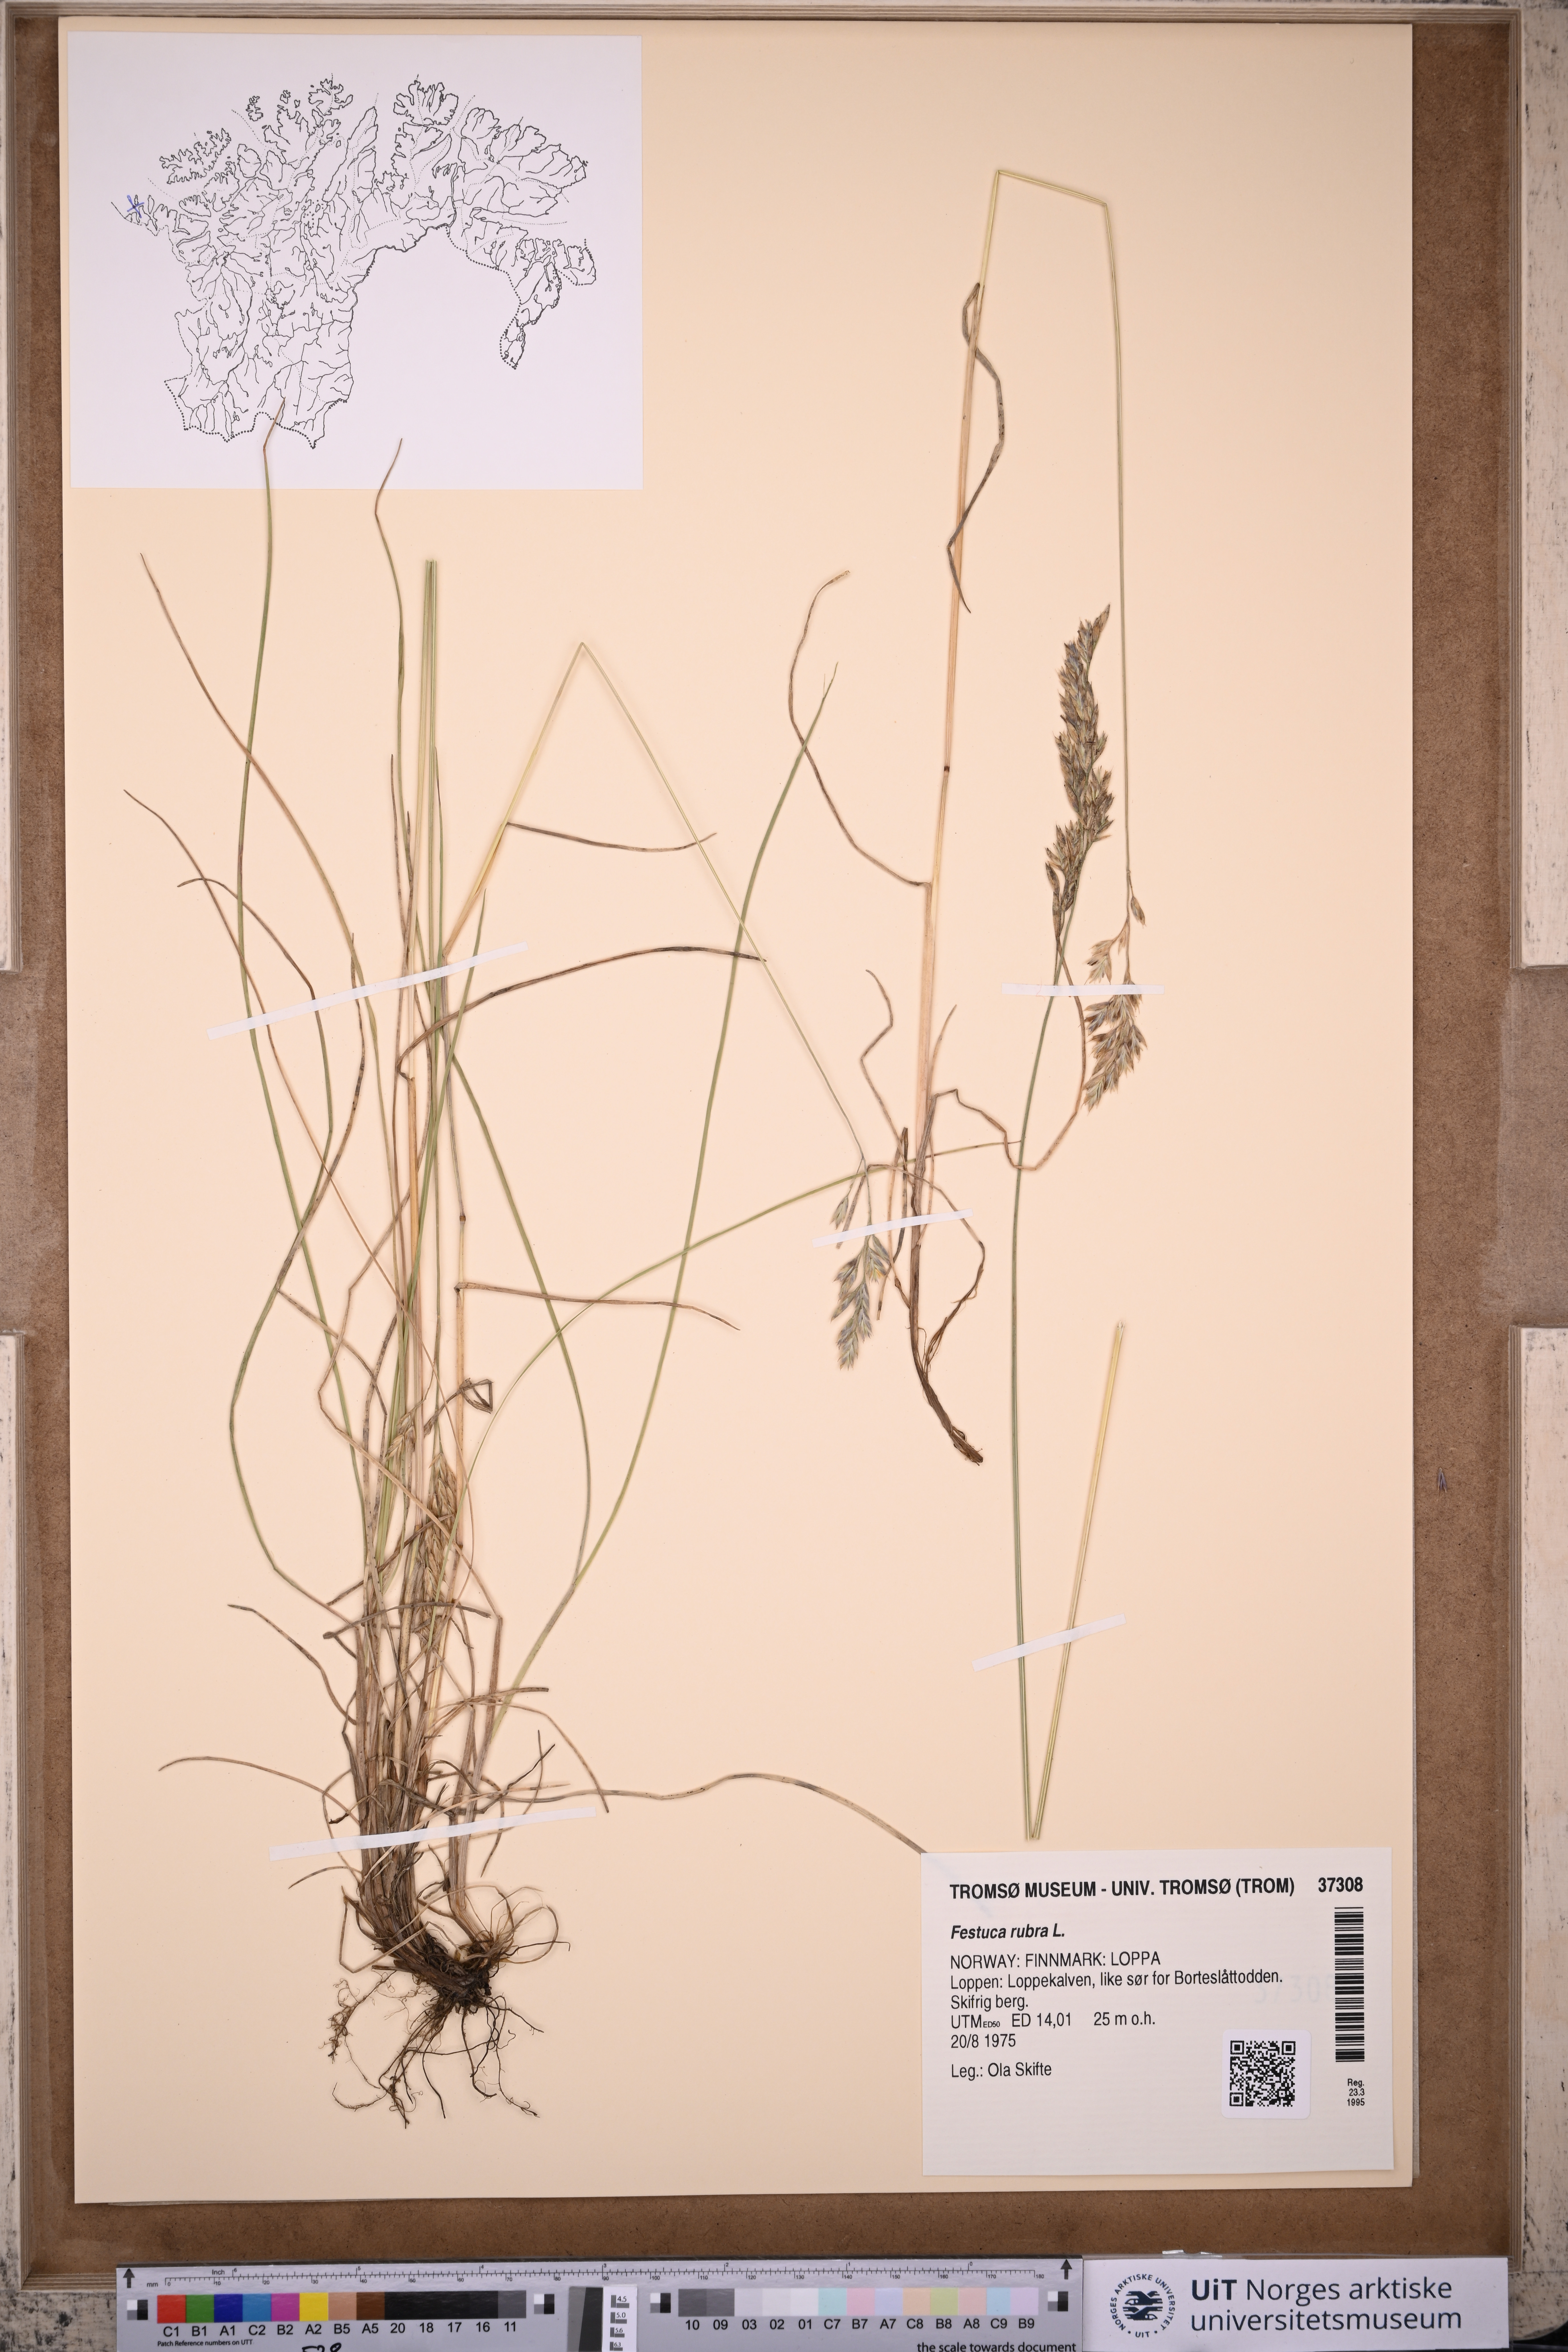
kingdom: Plantae
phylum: Tracheophyta
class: Liliopsida
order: Poales
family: Poaceae
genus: Festuca
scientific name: Festuca rubra
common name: Red fescue
